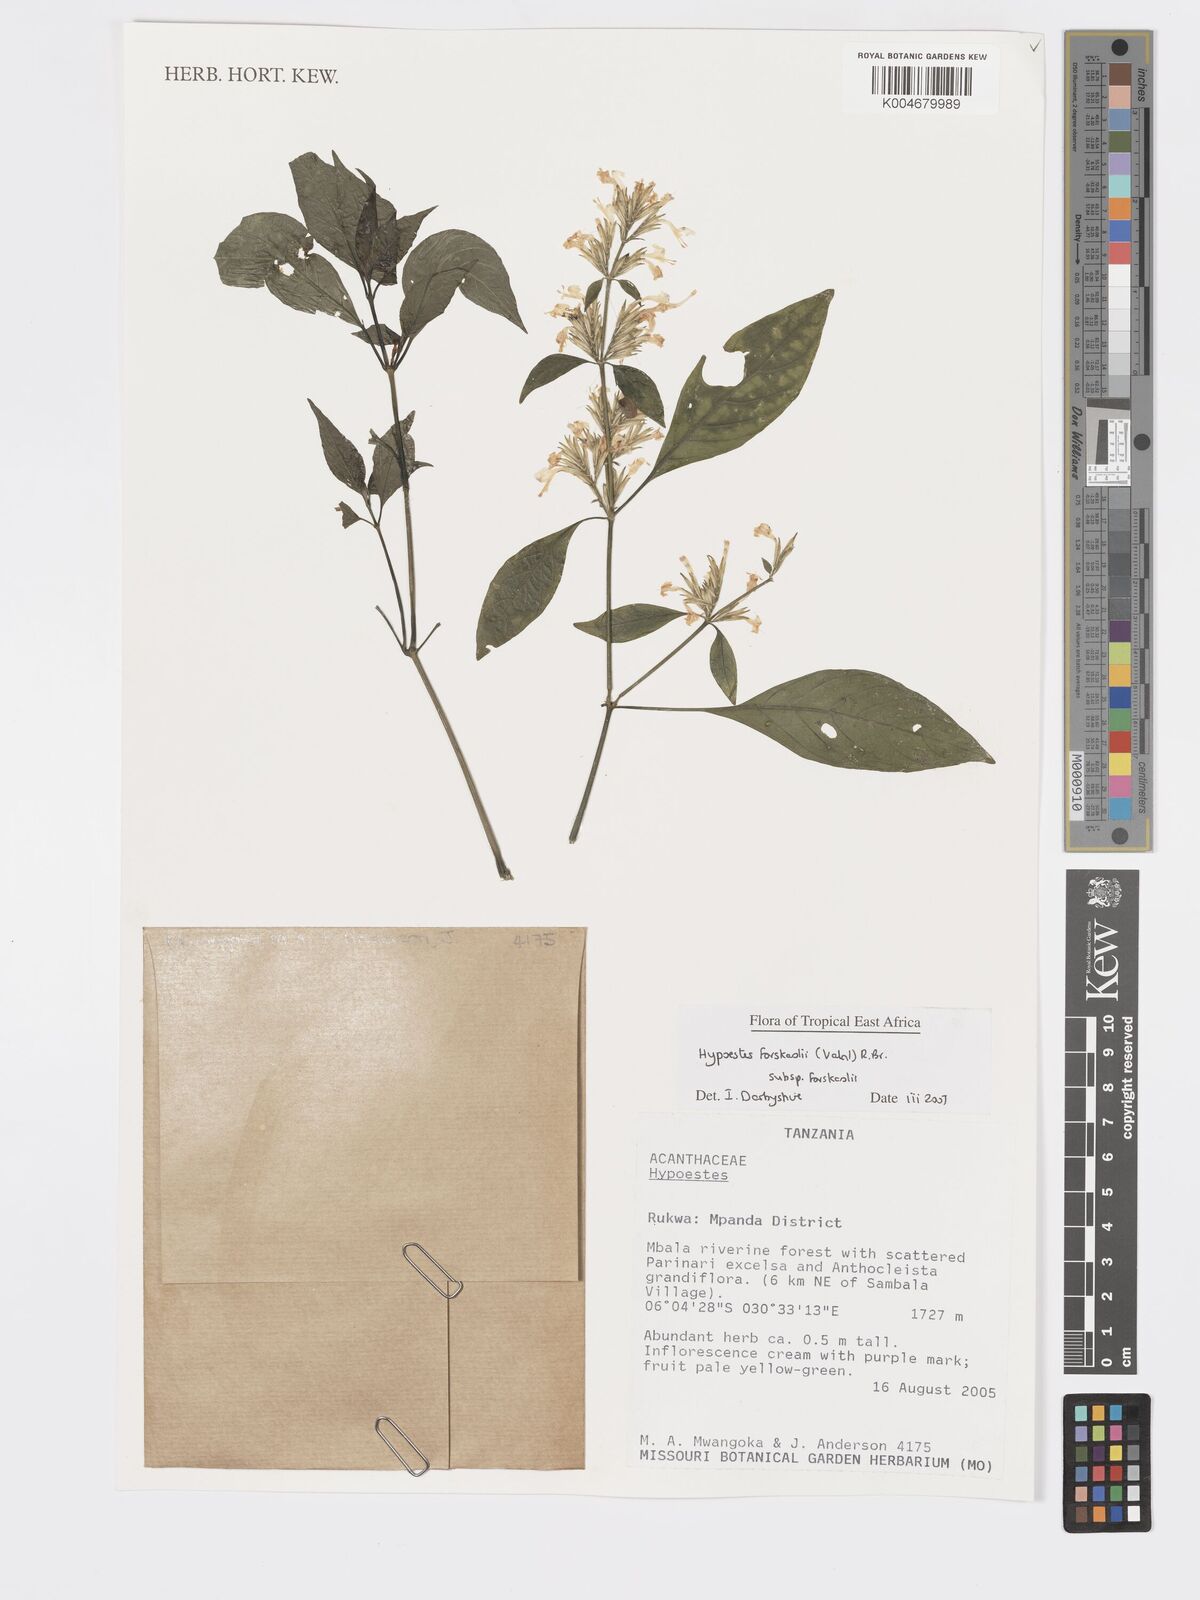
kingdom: Plantae
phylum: Tracheophyta
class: Magnoliopsida
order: Lamiales
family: Acanthaceae
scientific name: Acanthaceae
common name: Acanthaceae
